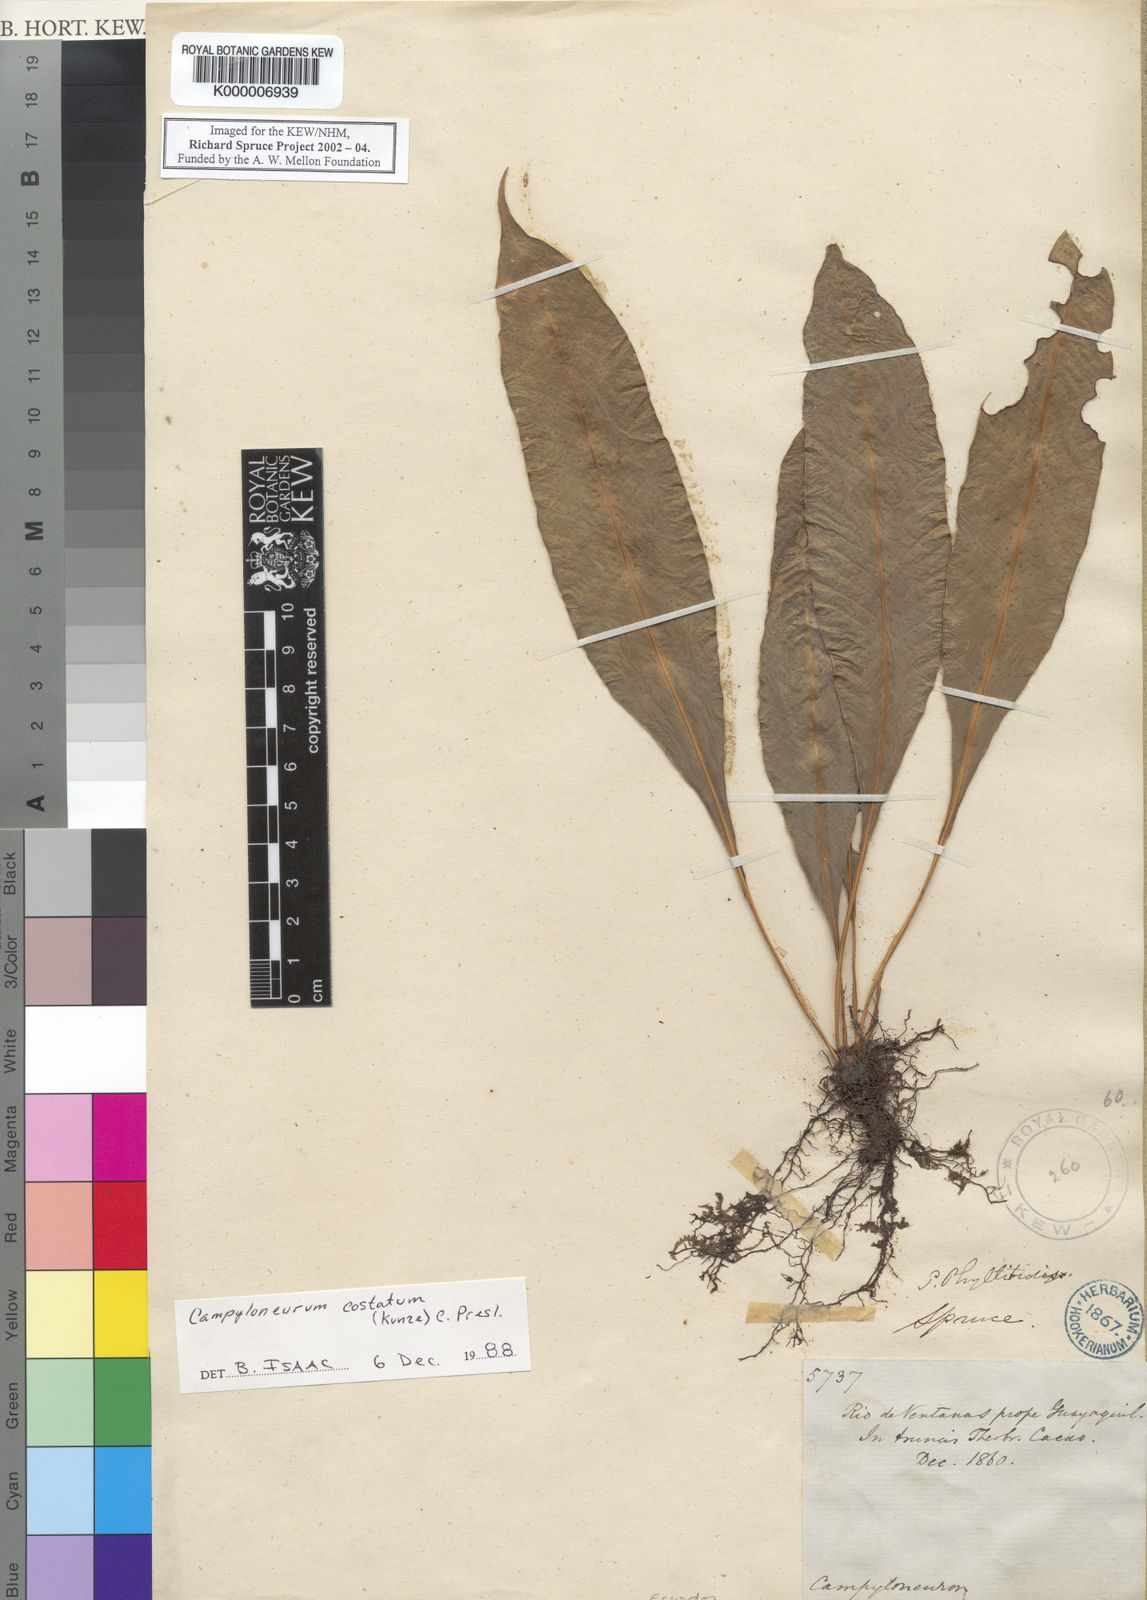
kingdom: Plantae
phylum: Tracheophyta
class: Polypodiopsida
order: Polypodiales
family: Polypodiaceae
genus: Campyloneurum
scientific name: Campyloneurum costatum
